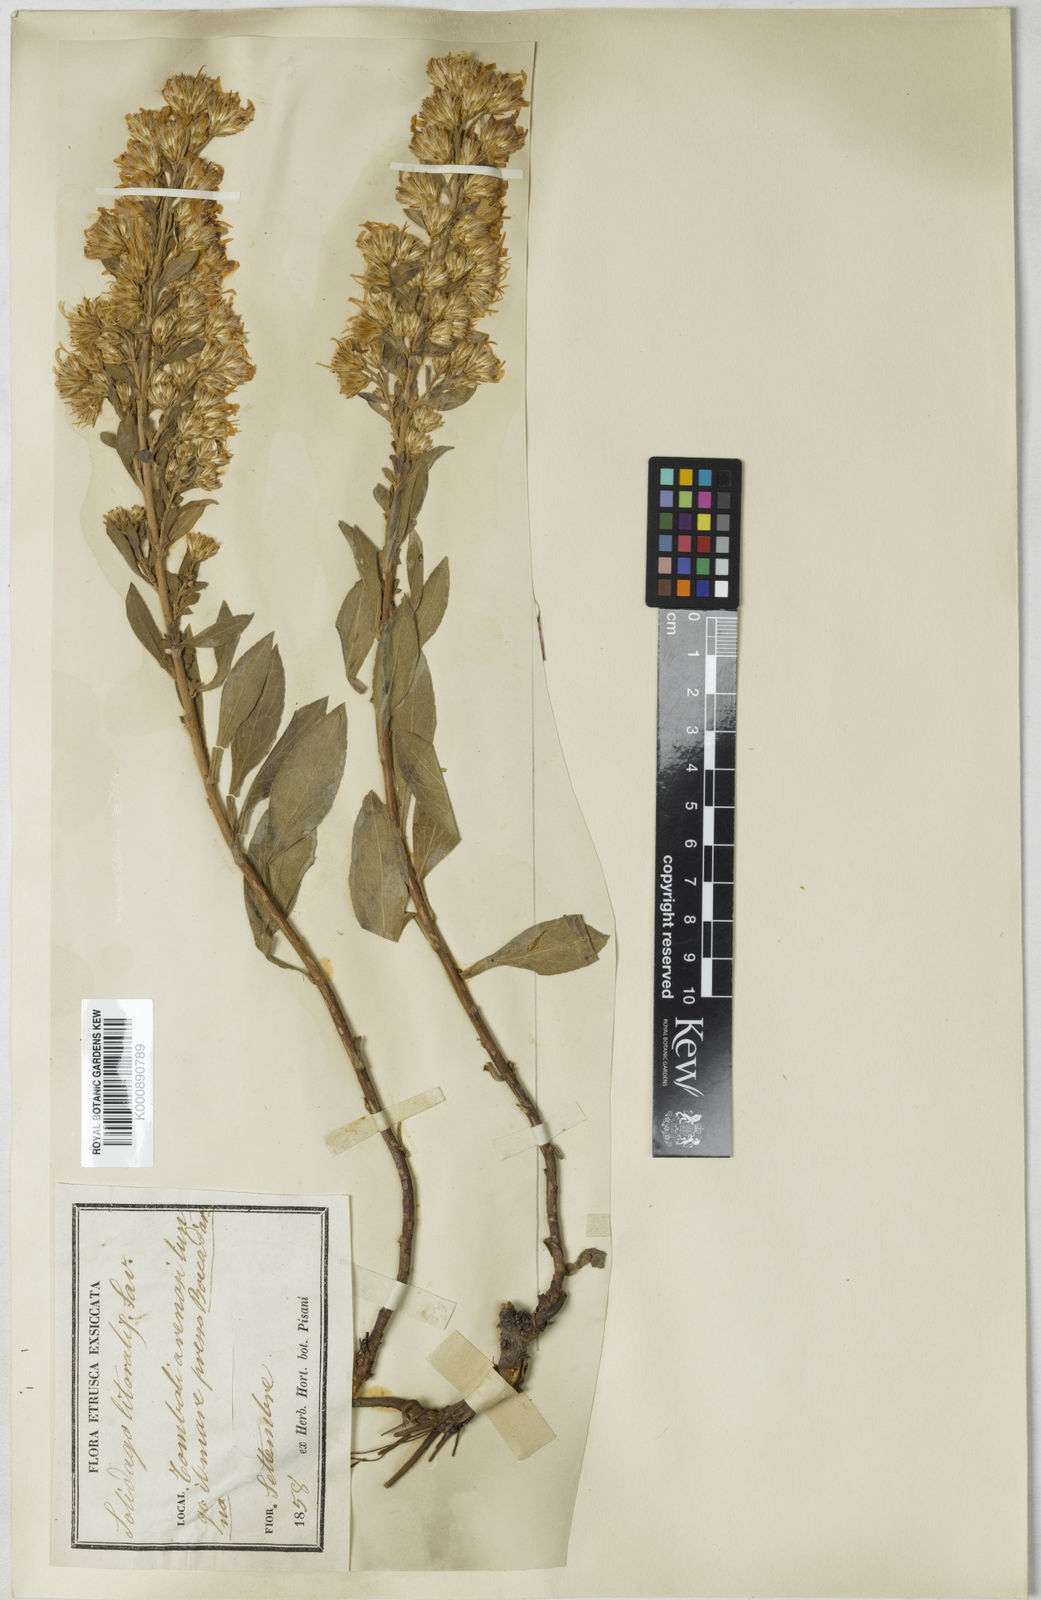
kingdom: Plantae
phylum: Tracheophyta
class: Magnoliopsida
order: Asterales
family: Asteraceae
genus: Solidago
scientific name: Solidago litoralis
